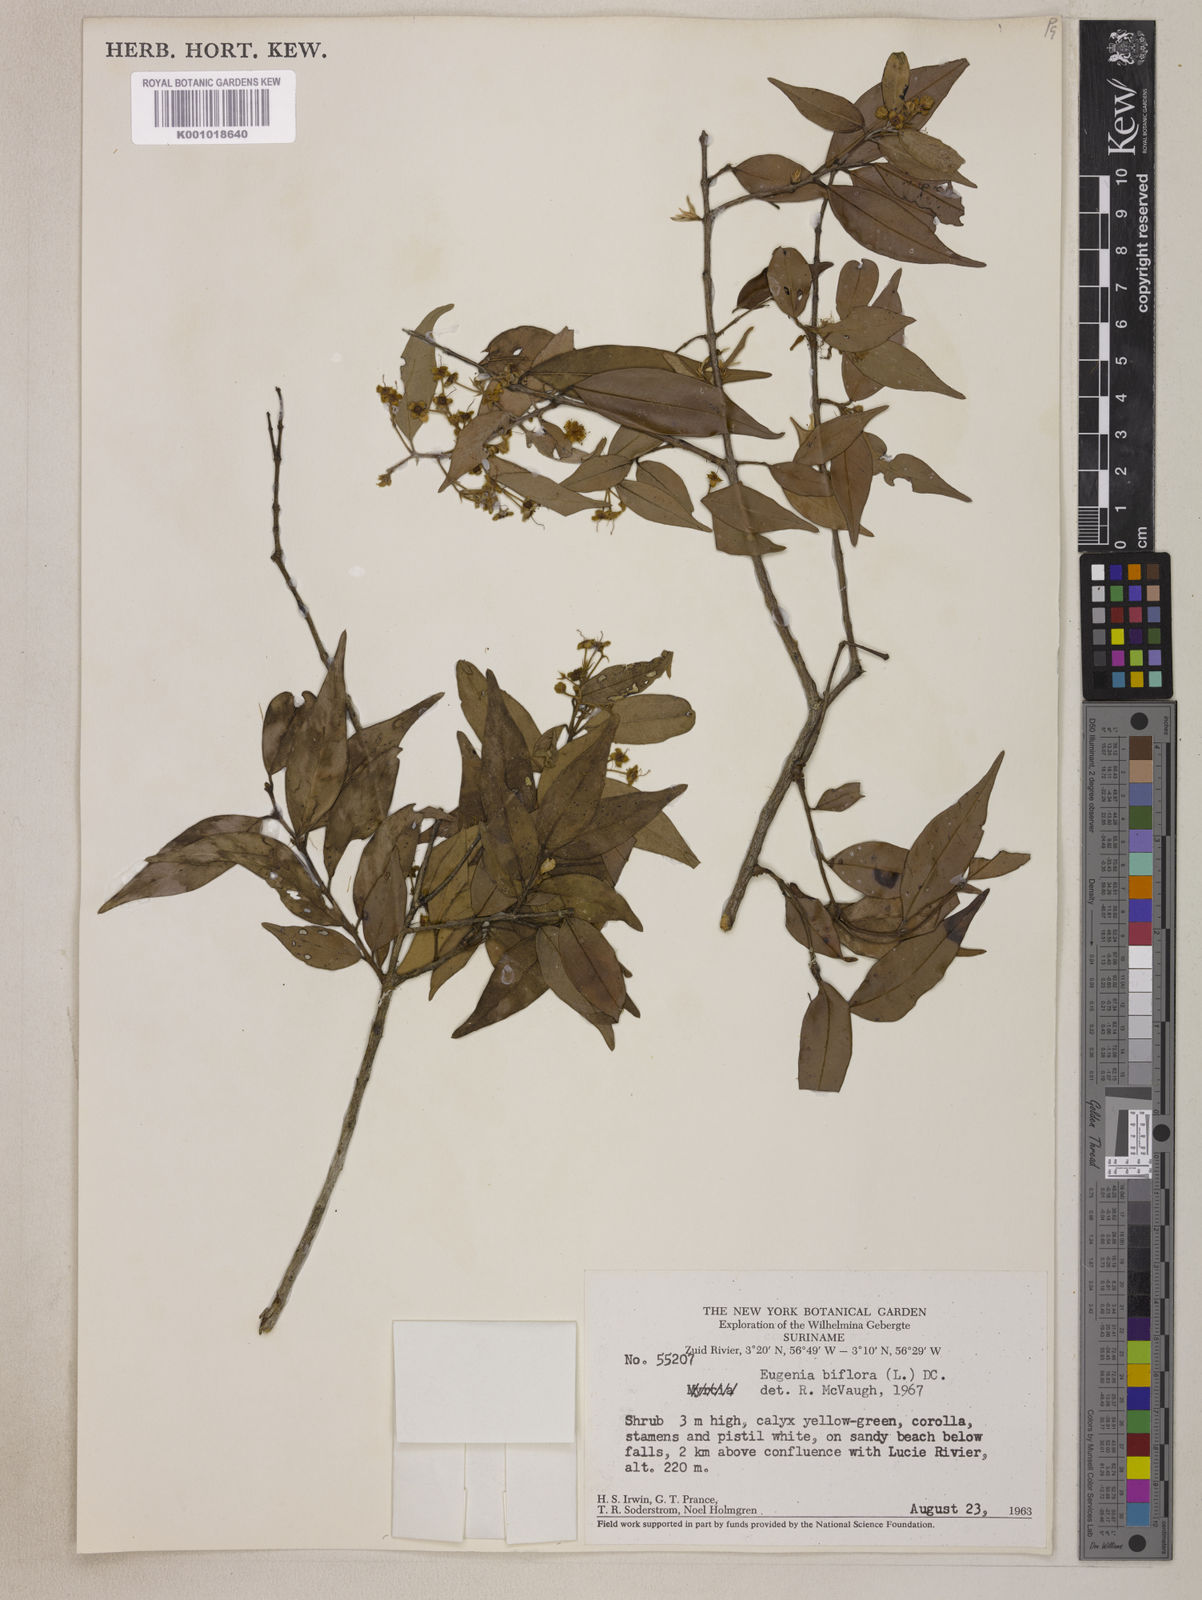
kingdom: Plantae
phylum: Tracheophyta
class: Magnoliopsida
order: Myrtales
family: Myrtaceae
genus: Eugenia
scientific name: Eugenia biflora
